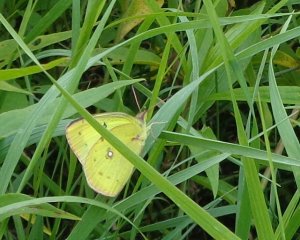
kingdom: Animalia
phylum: Arthropoda
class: Insecta
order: Lepidoptera
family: Pieridae
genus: Colias
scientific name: Colias philodice
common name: Clouded Sulphur
